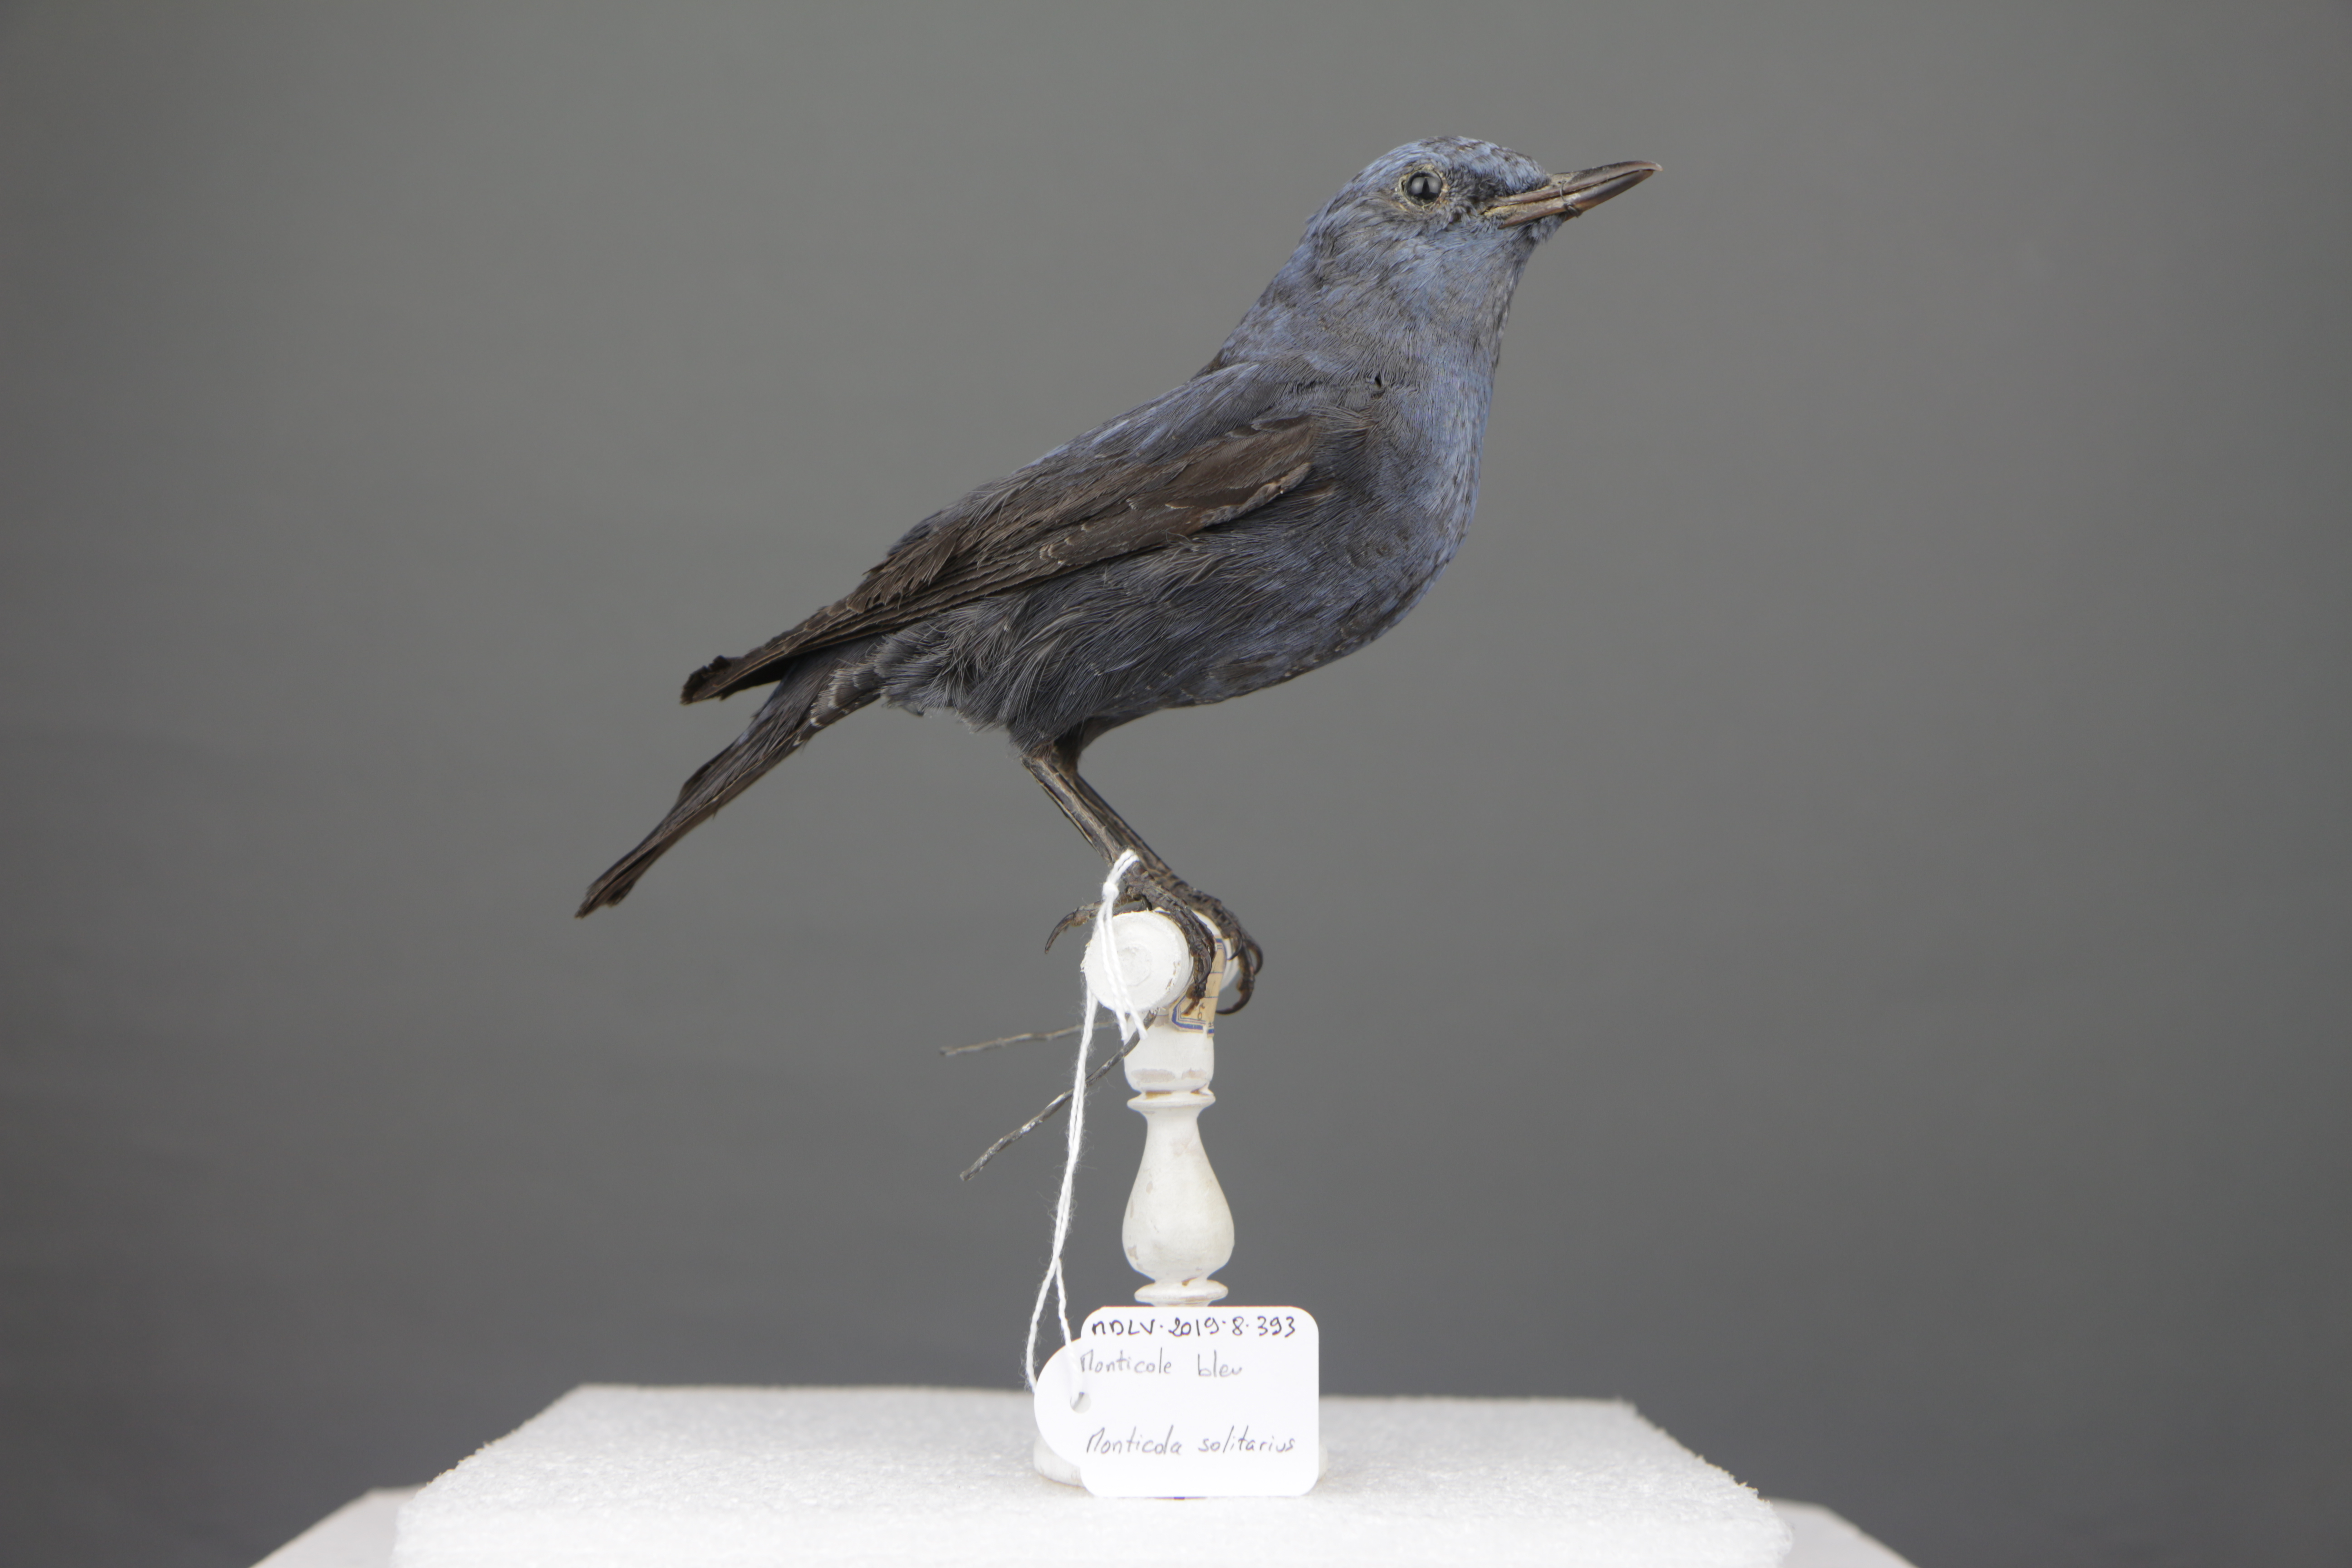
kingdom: Animalia
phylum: Chordata
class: Aves
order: Passeriformes
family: Muscicapidae
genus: Monticola
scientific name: Monticola solitarius
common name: Blue rock thrush
